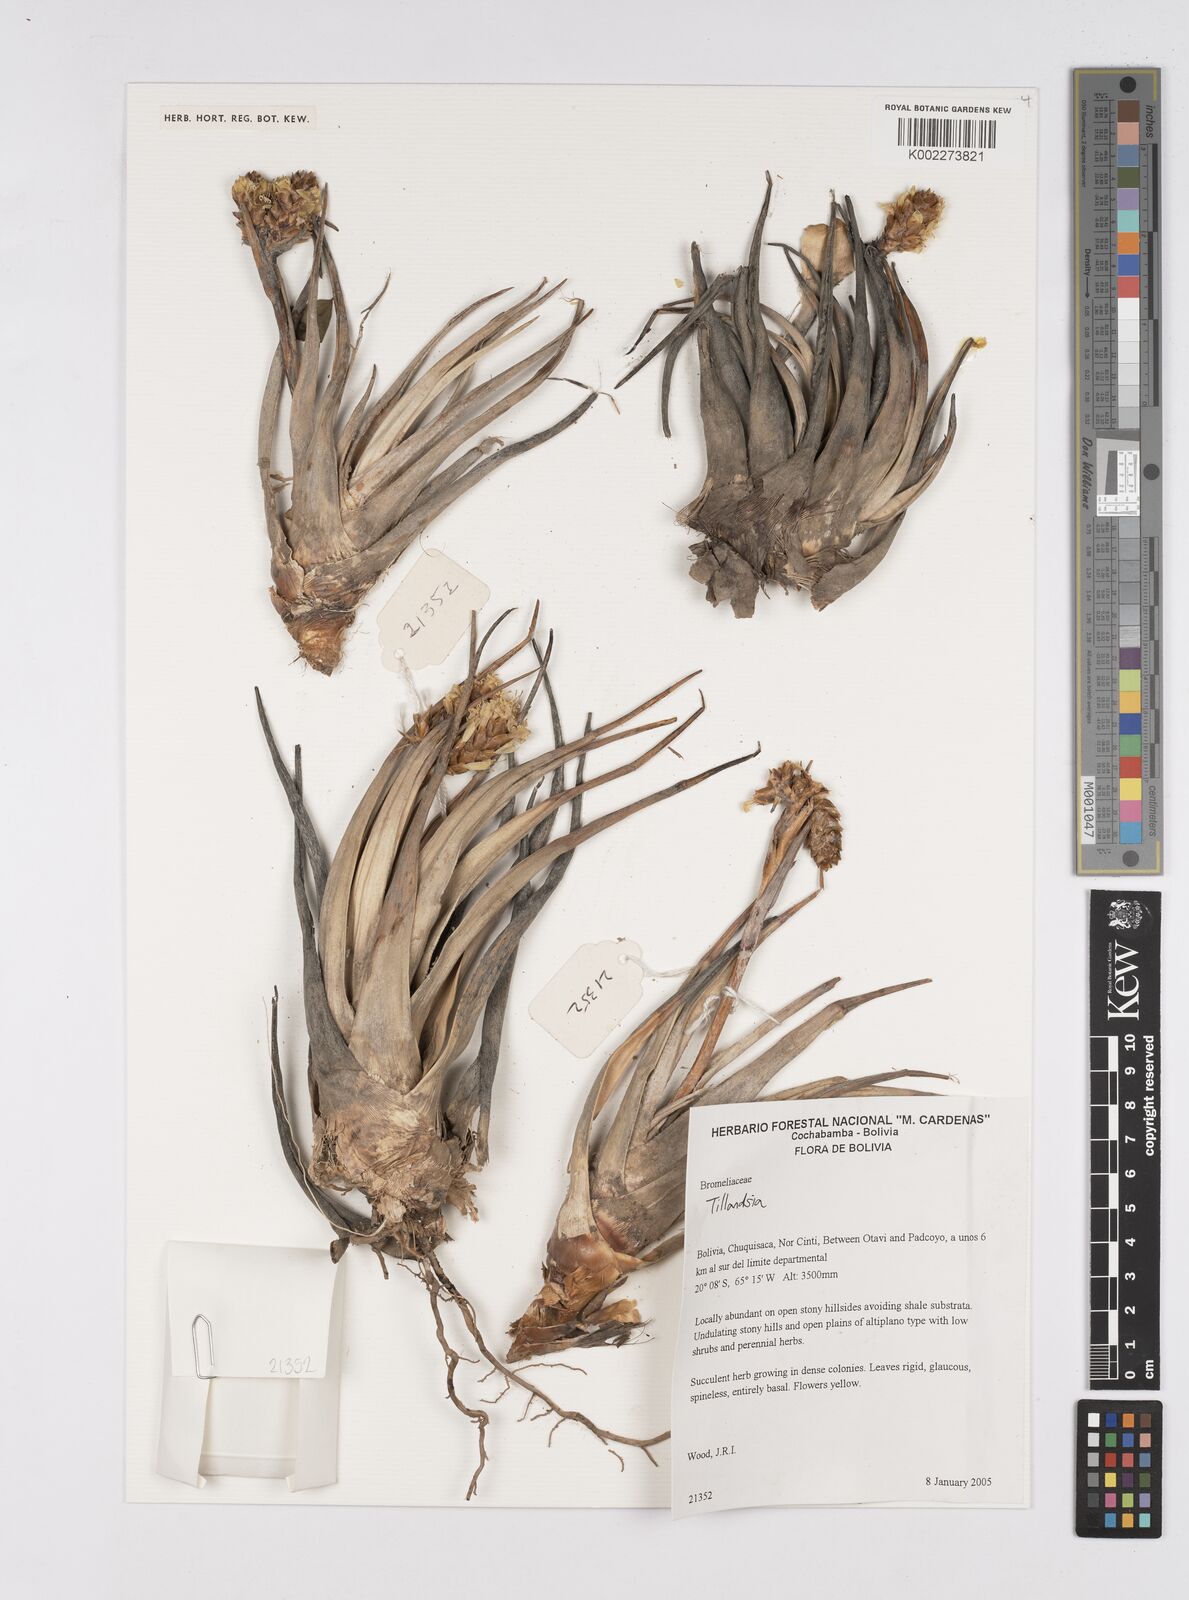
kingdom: Plantae
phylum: Tracheophyta
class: Liliopsida
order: Poales
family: Bromeliaceae
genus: Tillandsia
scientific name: Tillandsia
